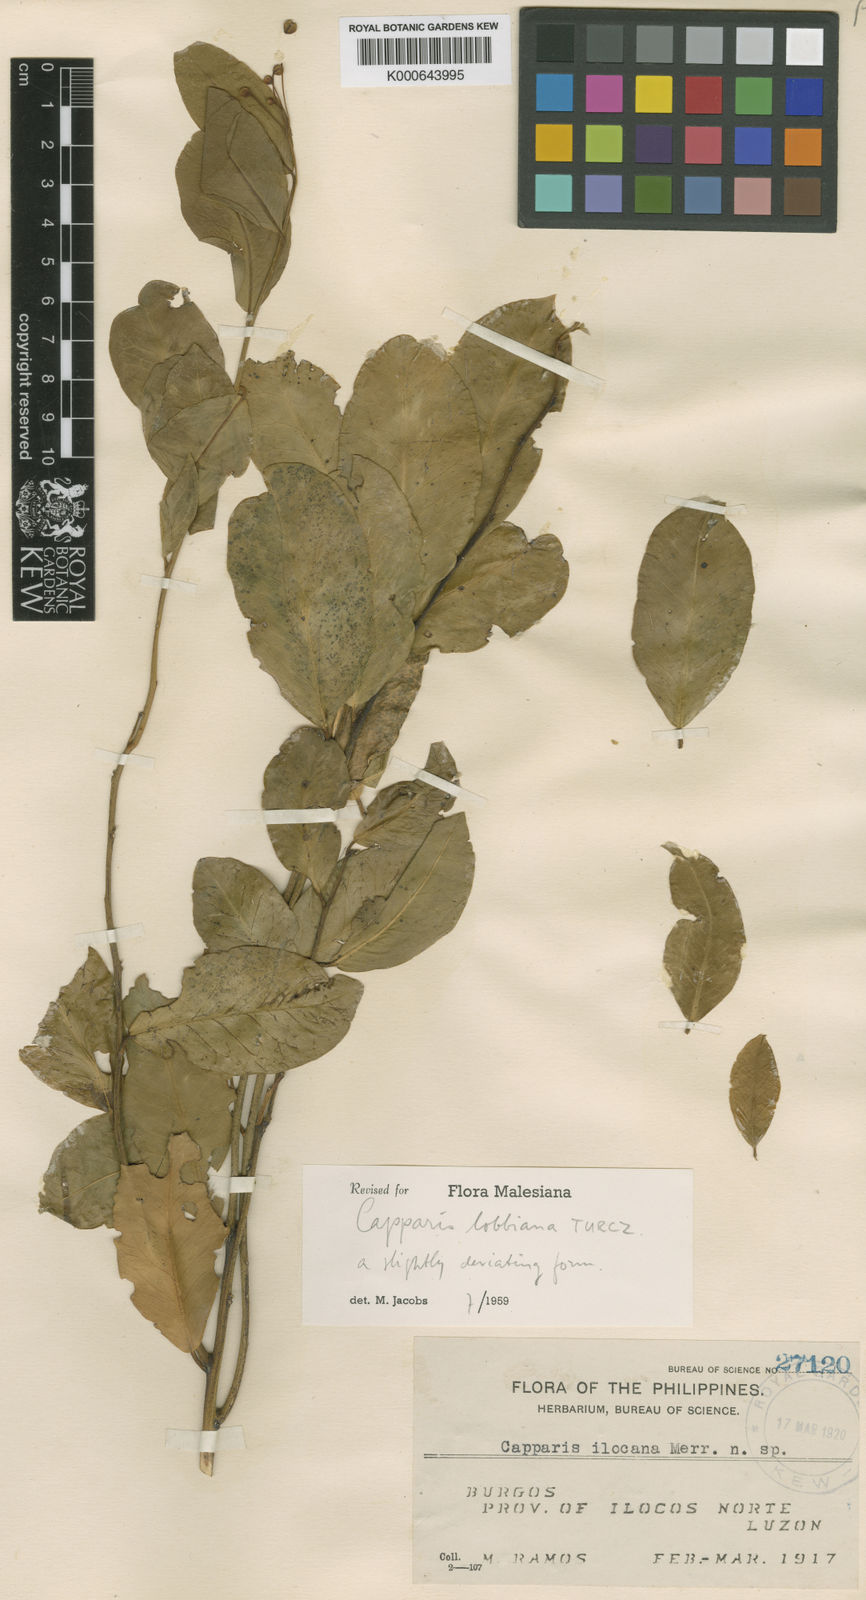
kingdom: Plantae
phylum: Tracheophyta
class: Magnoliopsida
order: Brassicales
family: Capparaceae
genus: Capparis
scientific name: Capparis lobbiana
